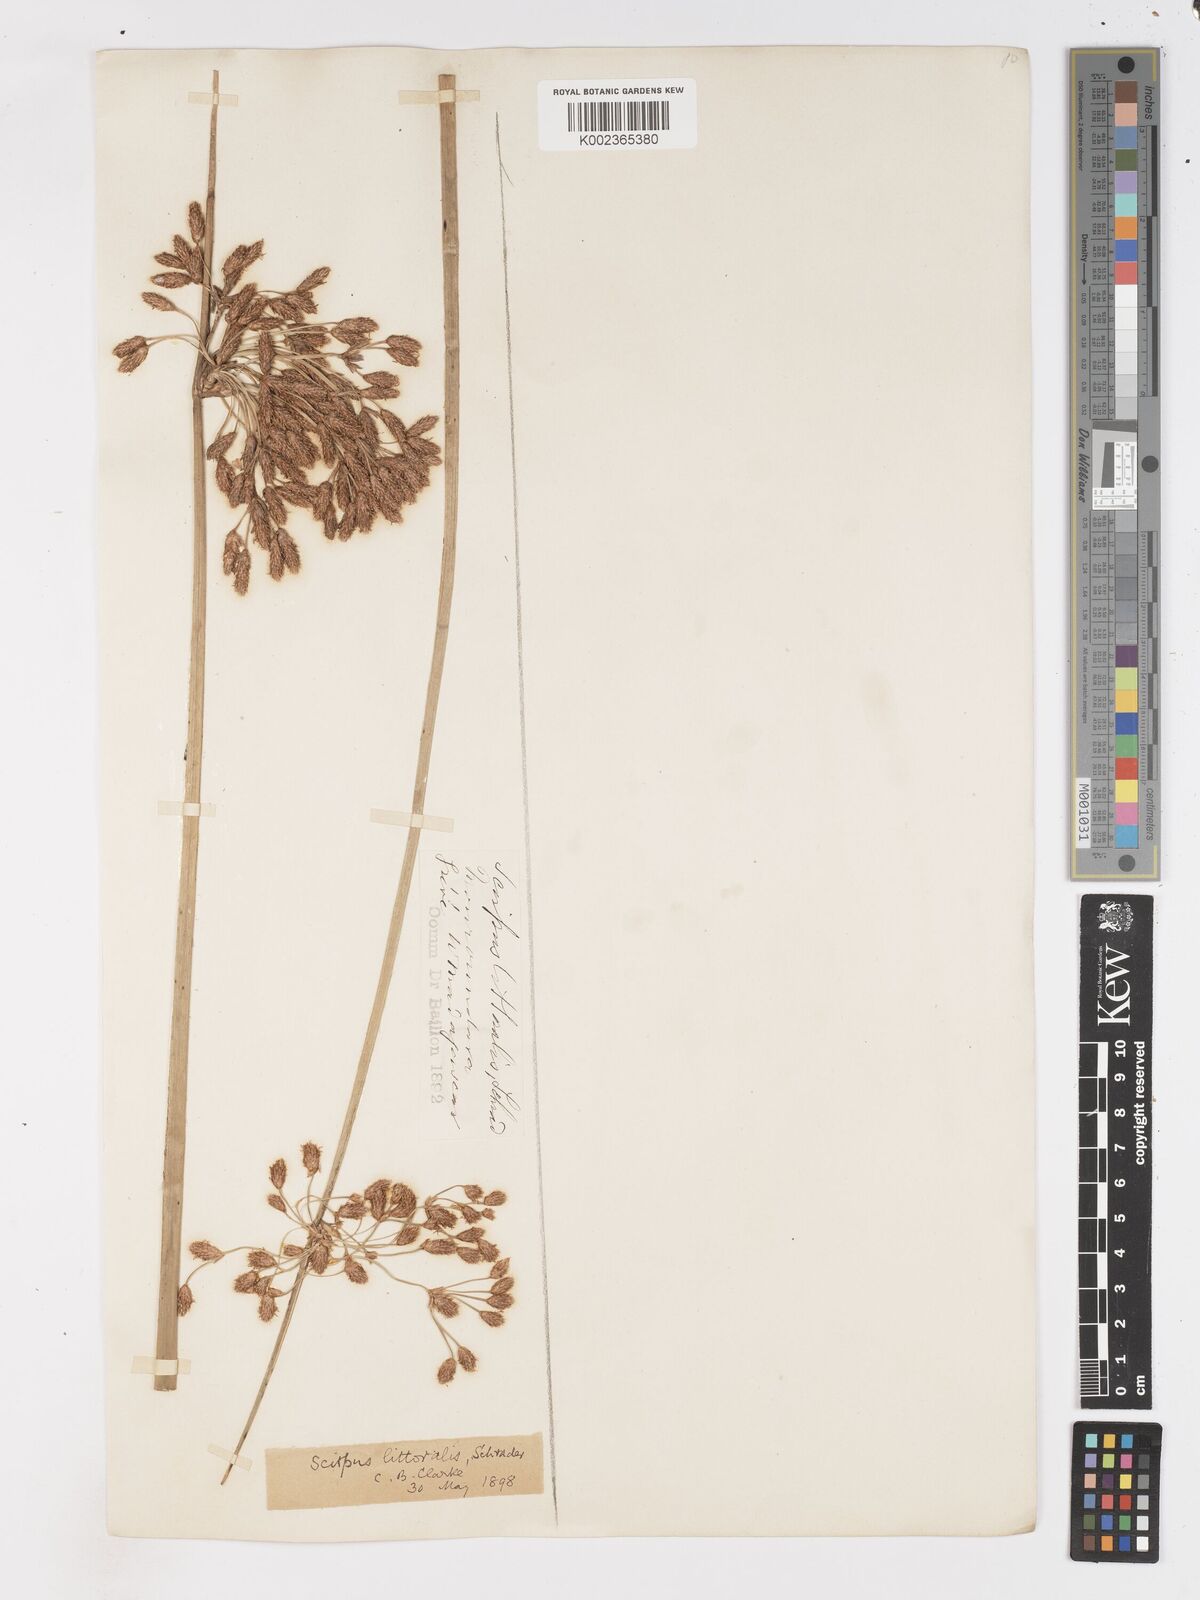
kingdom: Plantae
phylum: Tracheophyta
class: Liliopsida
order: Poales
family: Cyperaceae
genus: Schoenoplectus
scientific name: Schoenoplectus
